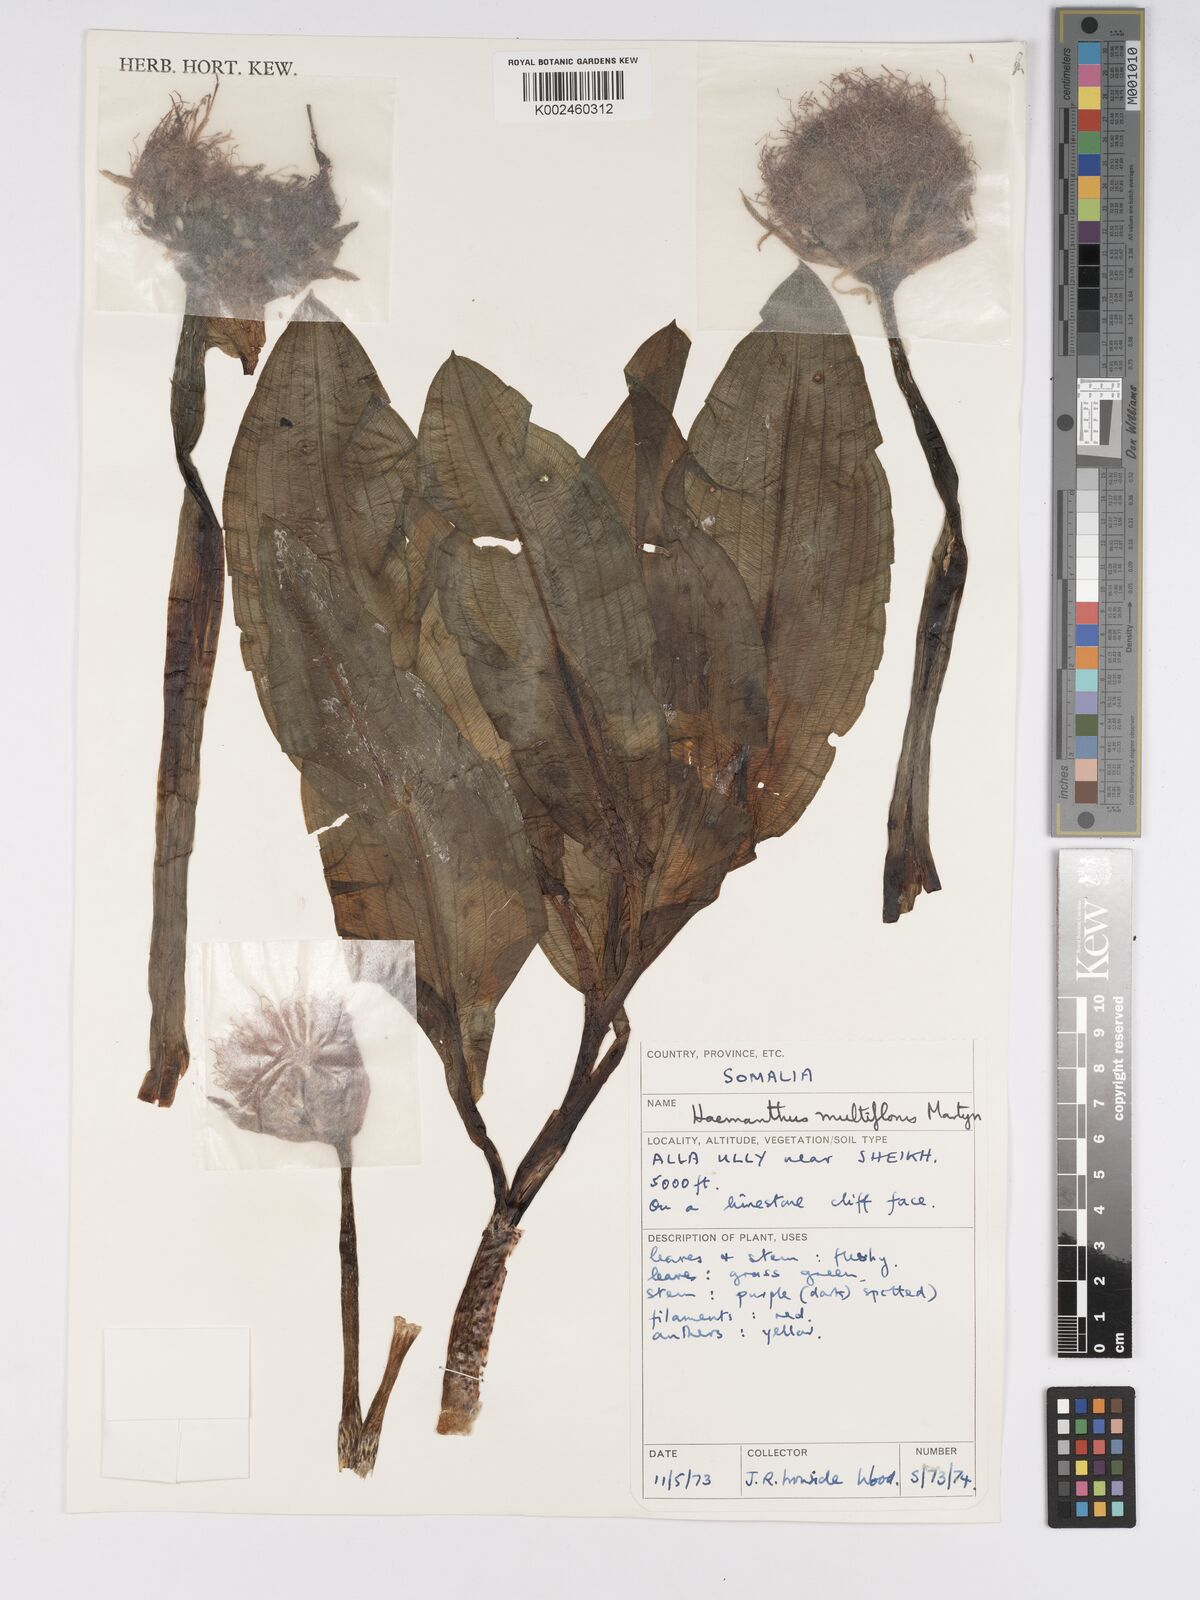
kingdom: Plantae
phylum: Tracheophyta
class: Liliopsida
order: Asparagales
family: Amaryllidaceae
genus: Scadoxus
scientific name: Scadoxus multiflorus
